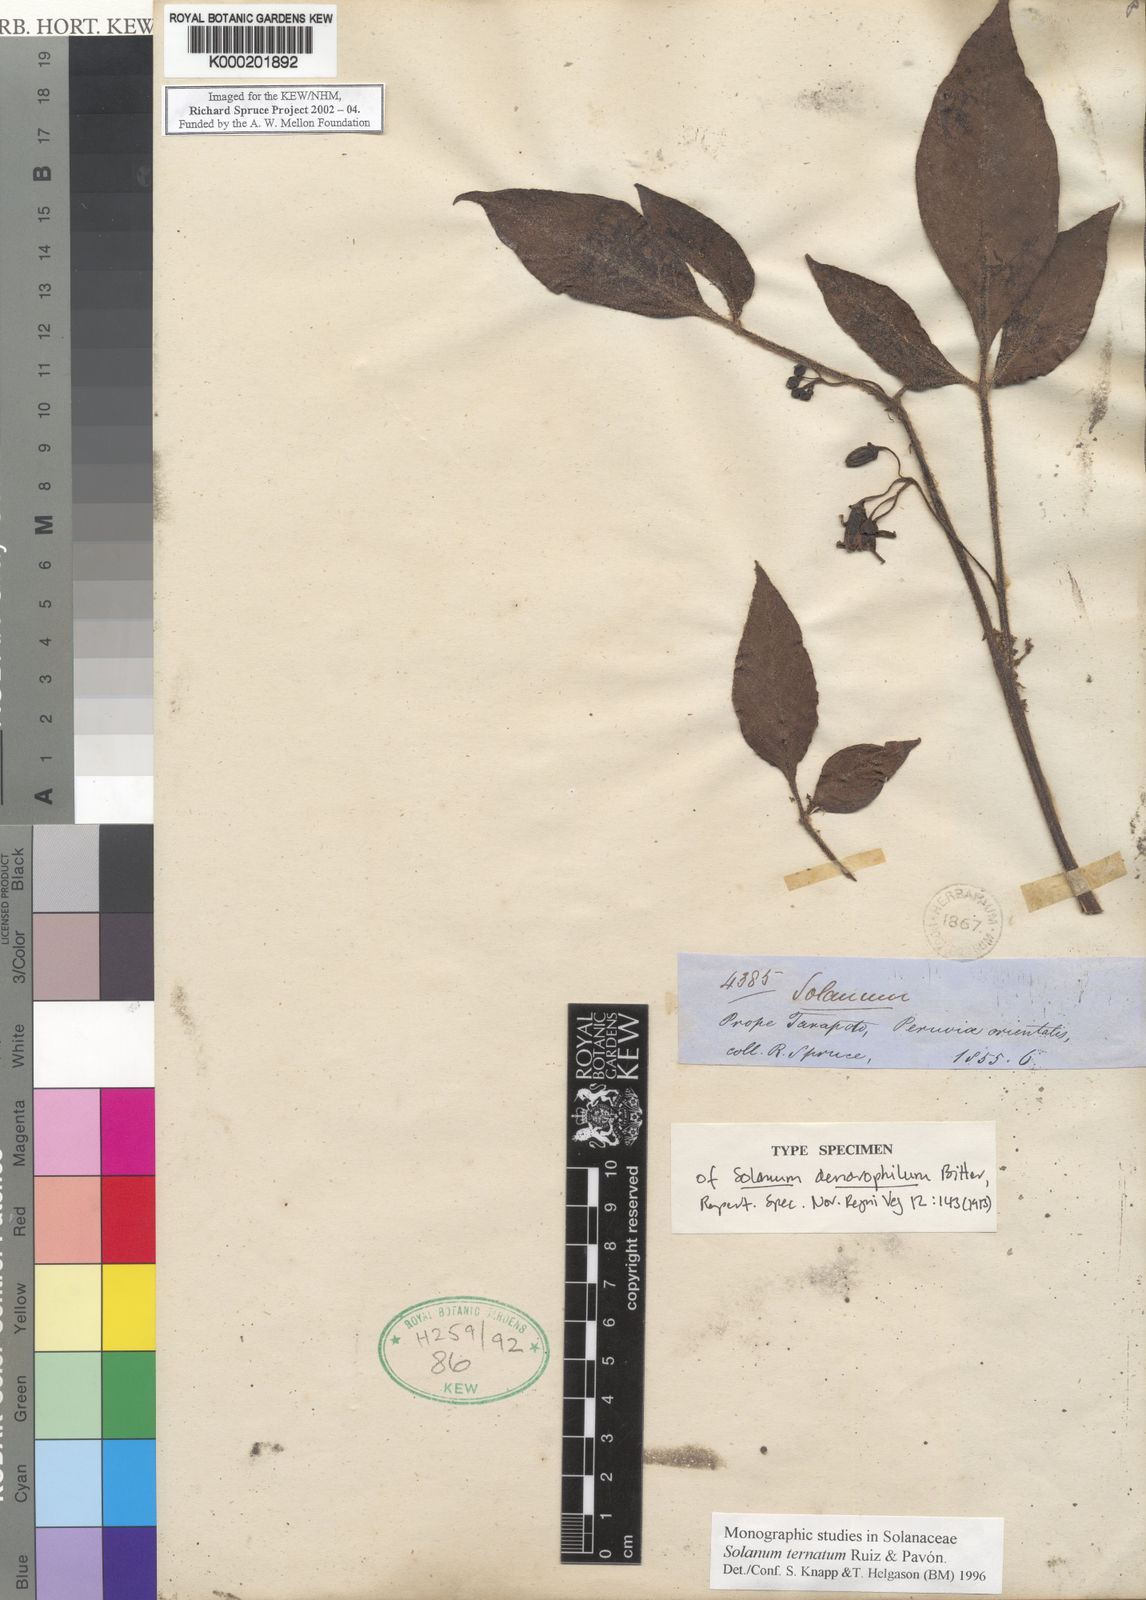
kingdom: Plantae
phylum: Tracheophyta
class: Magnoliopsida
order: Solanales
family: Solanaceae
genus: Solanum
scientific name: Solanum ternatum
